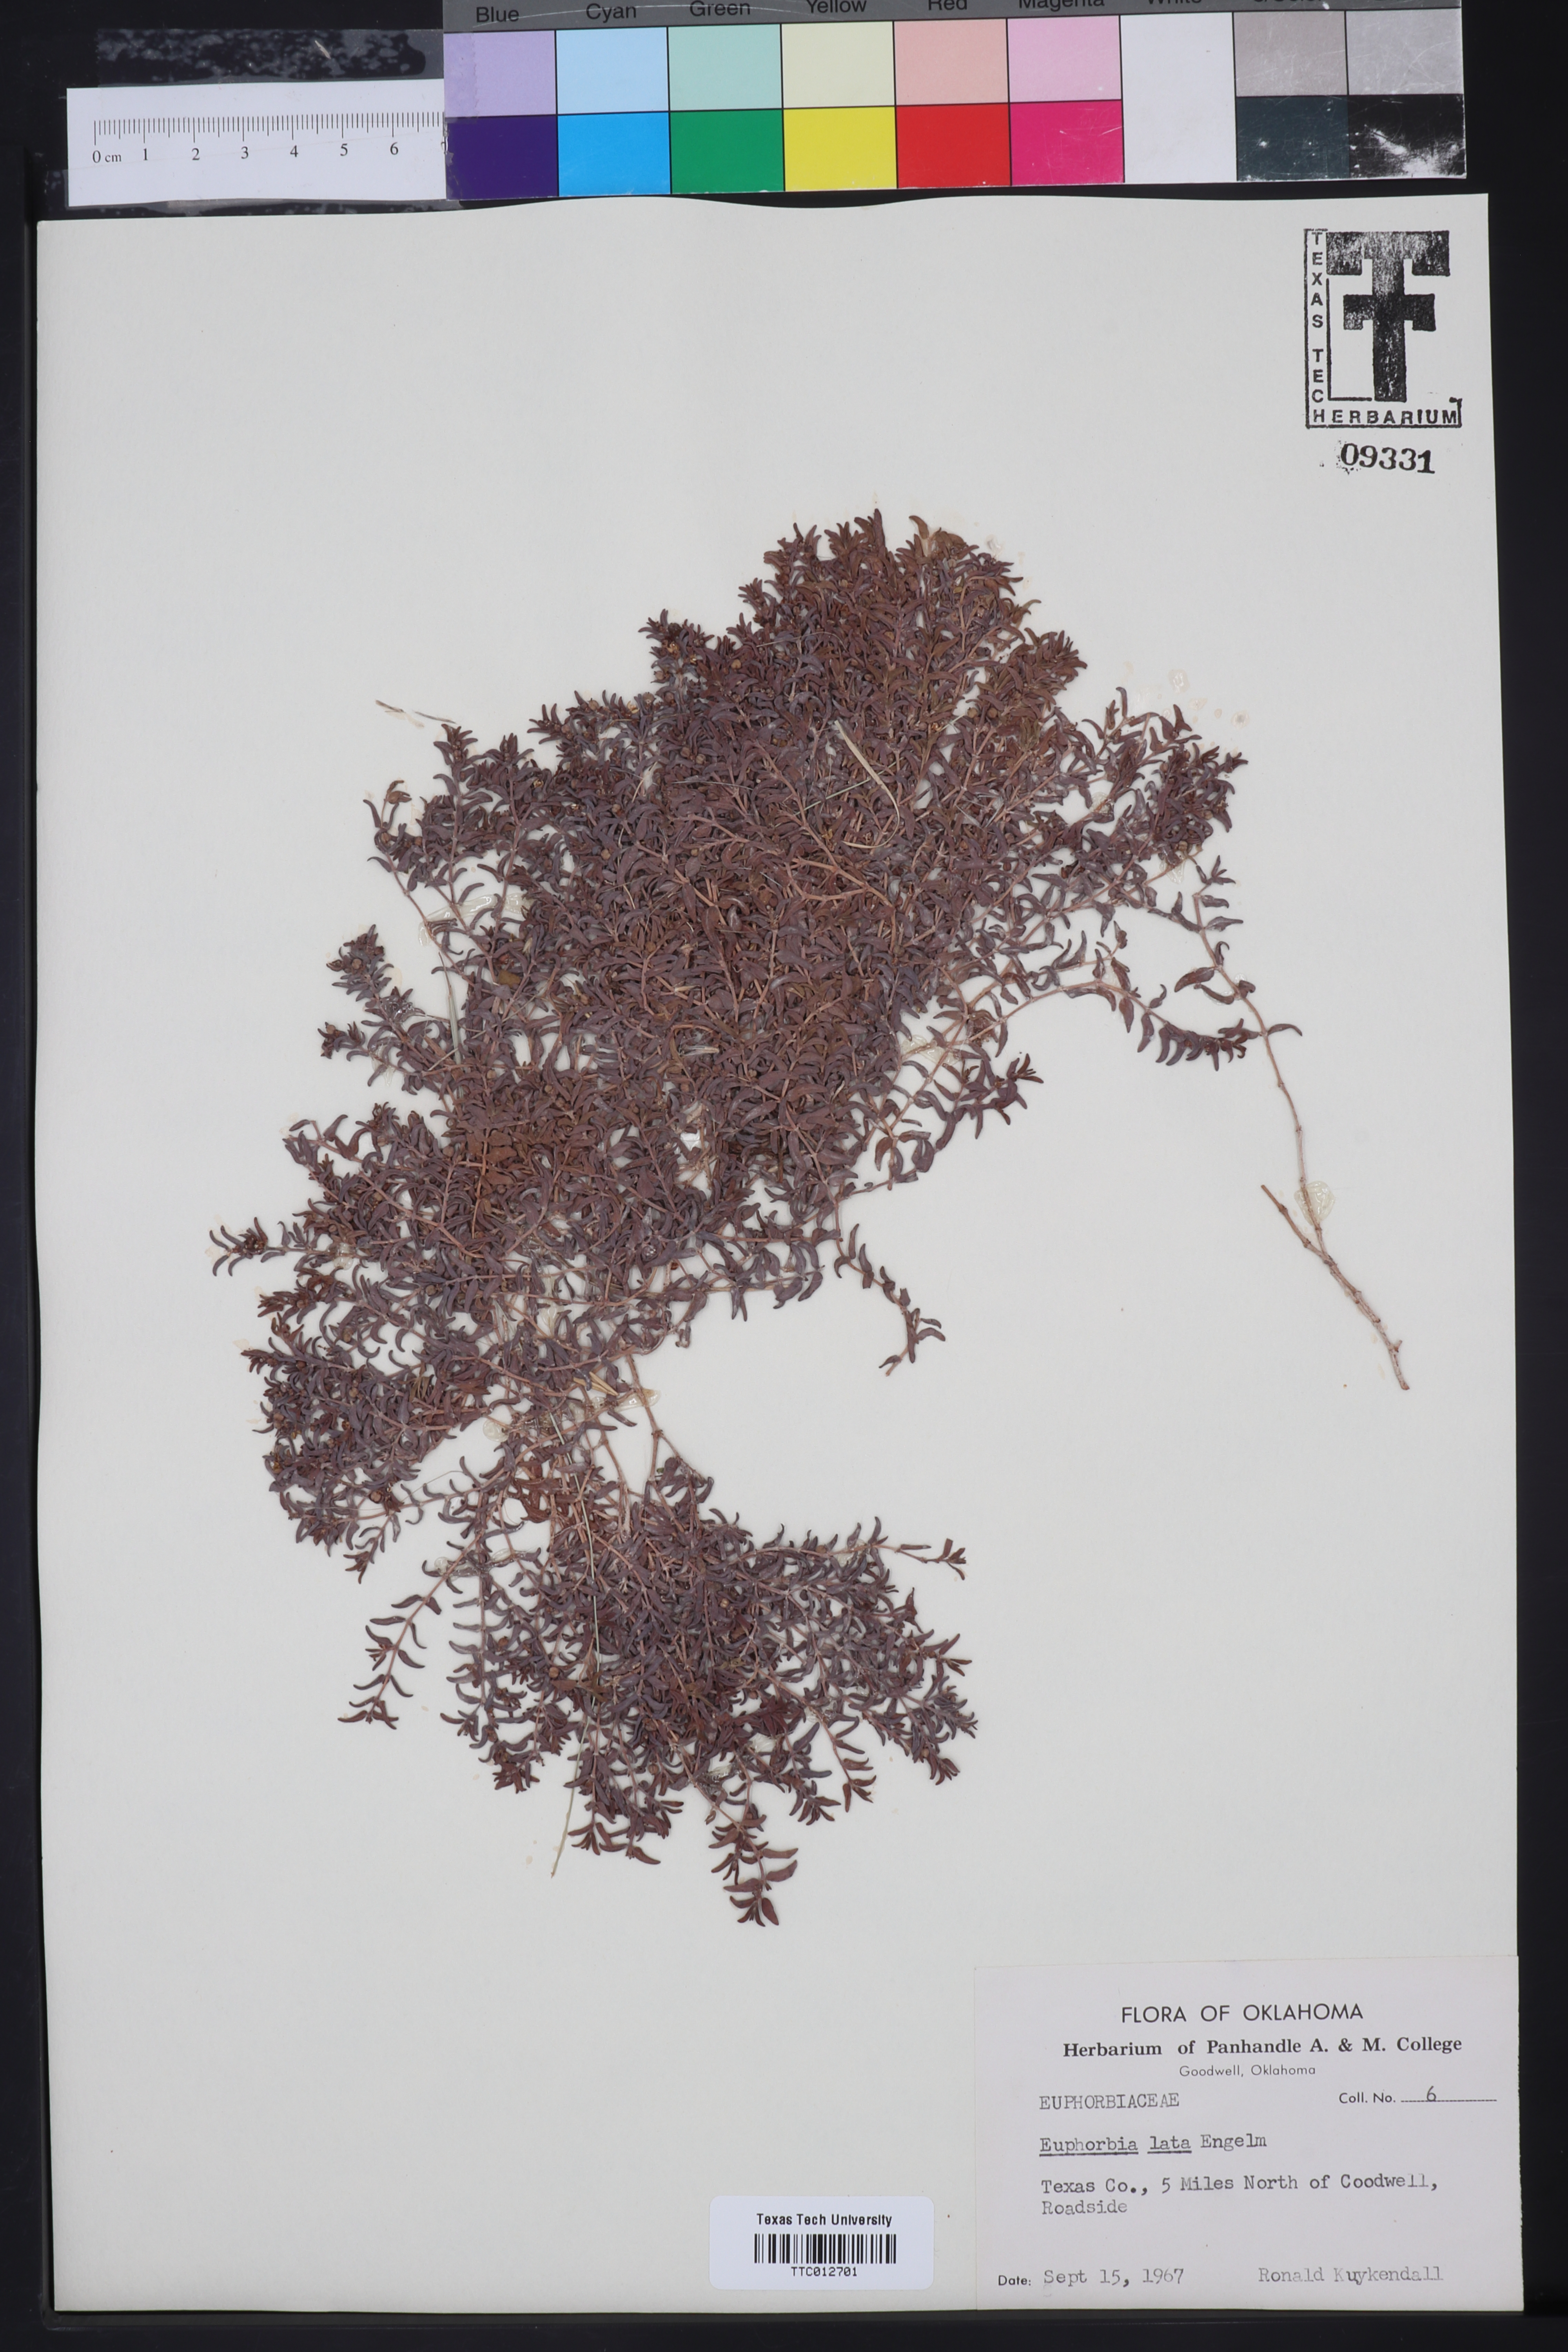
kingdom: Plantae
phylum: Tracheophyta
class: Magnoliopsida
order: Malpighiales
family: Euphorbiaceae
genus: Euphorbia
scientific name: Euphorbia lata
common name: Hoary euphorbia
